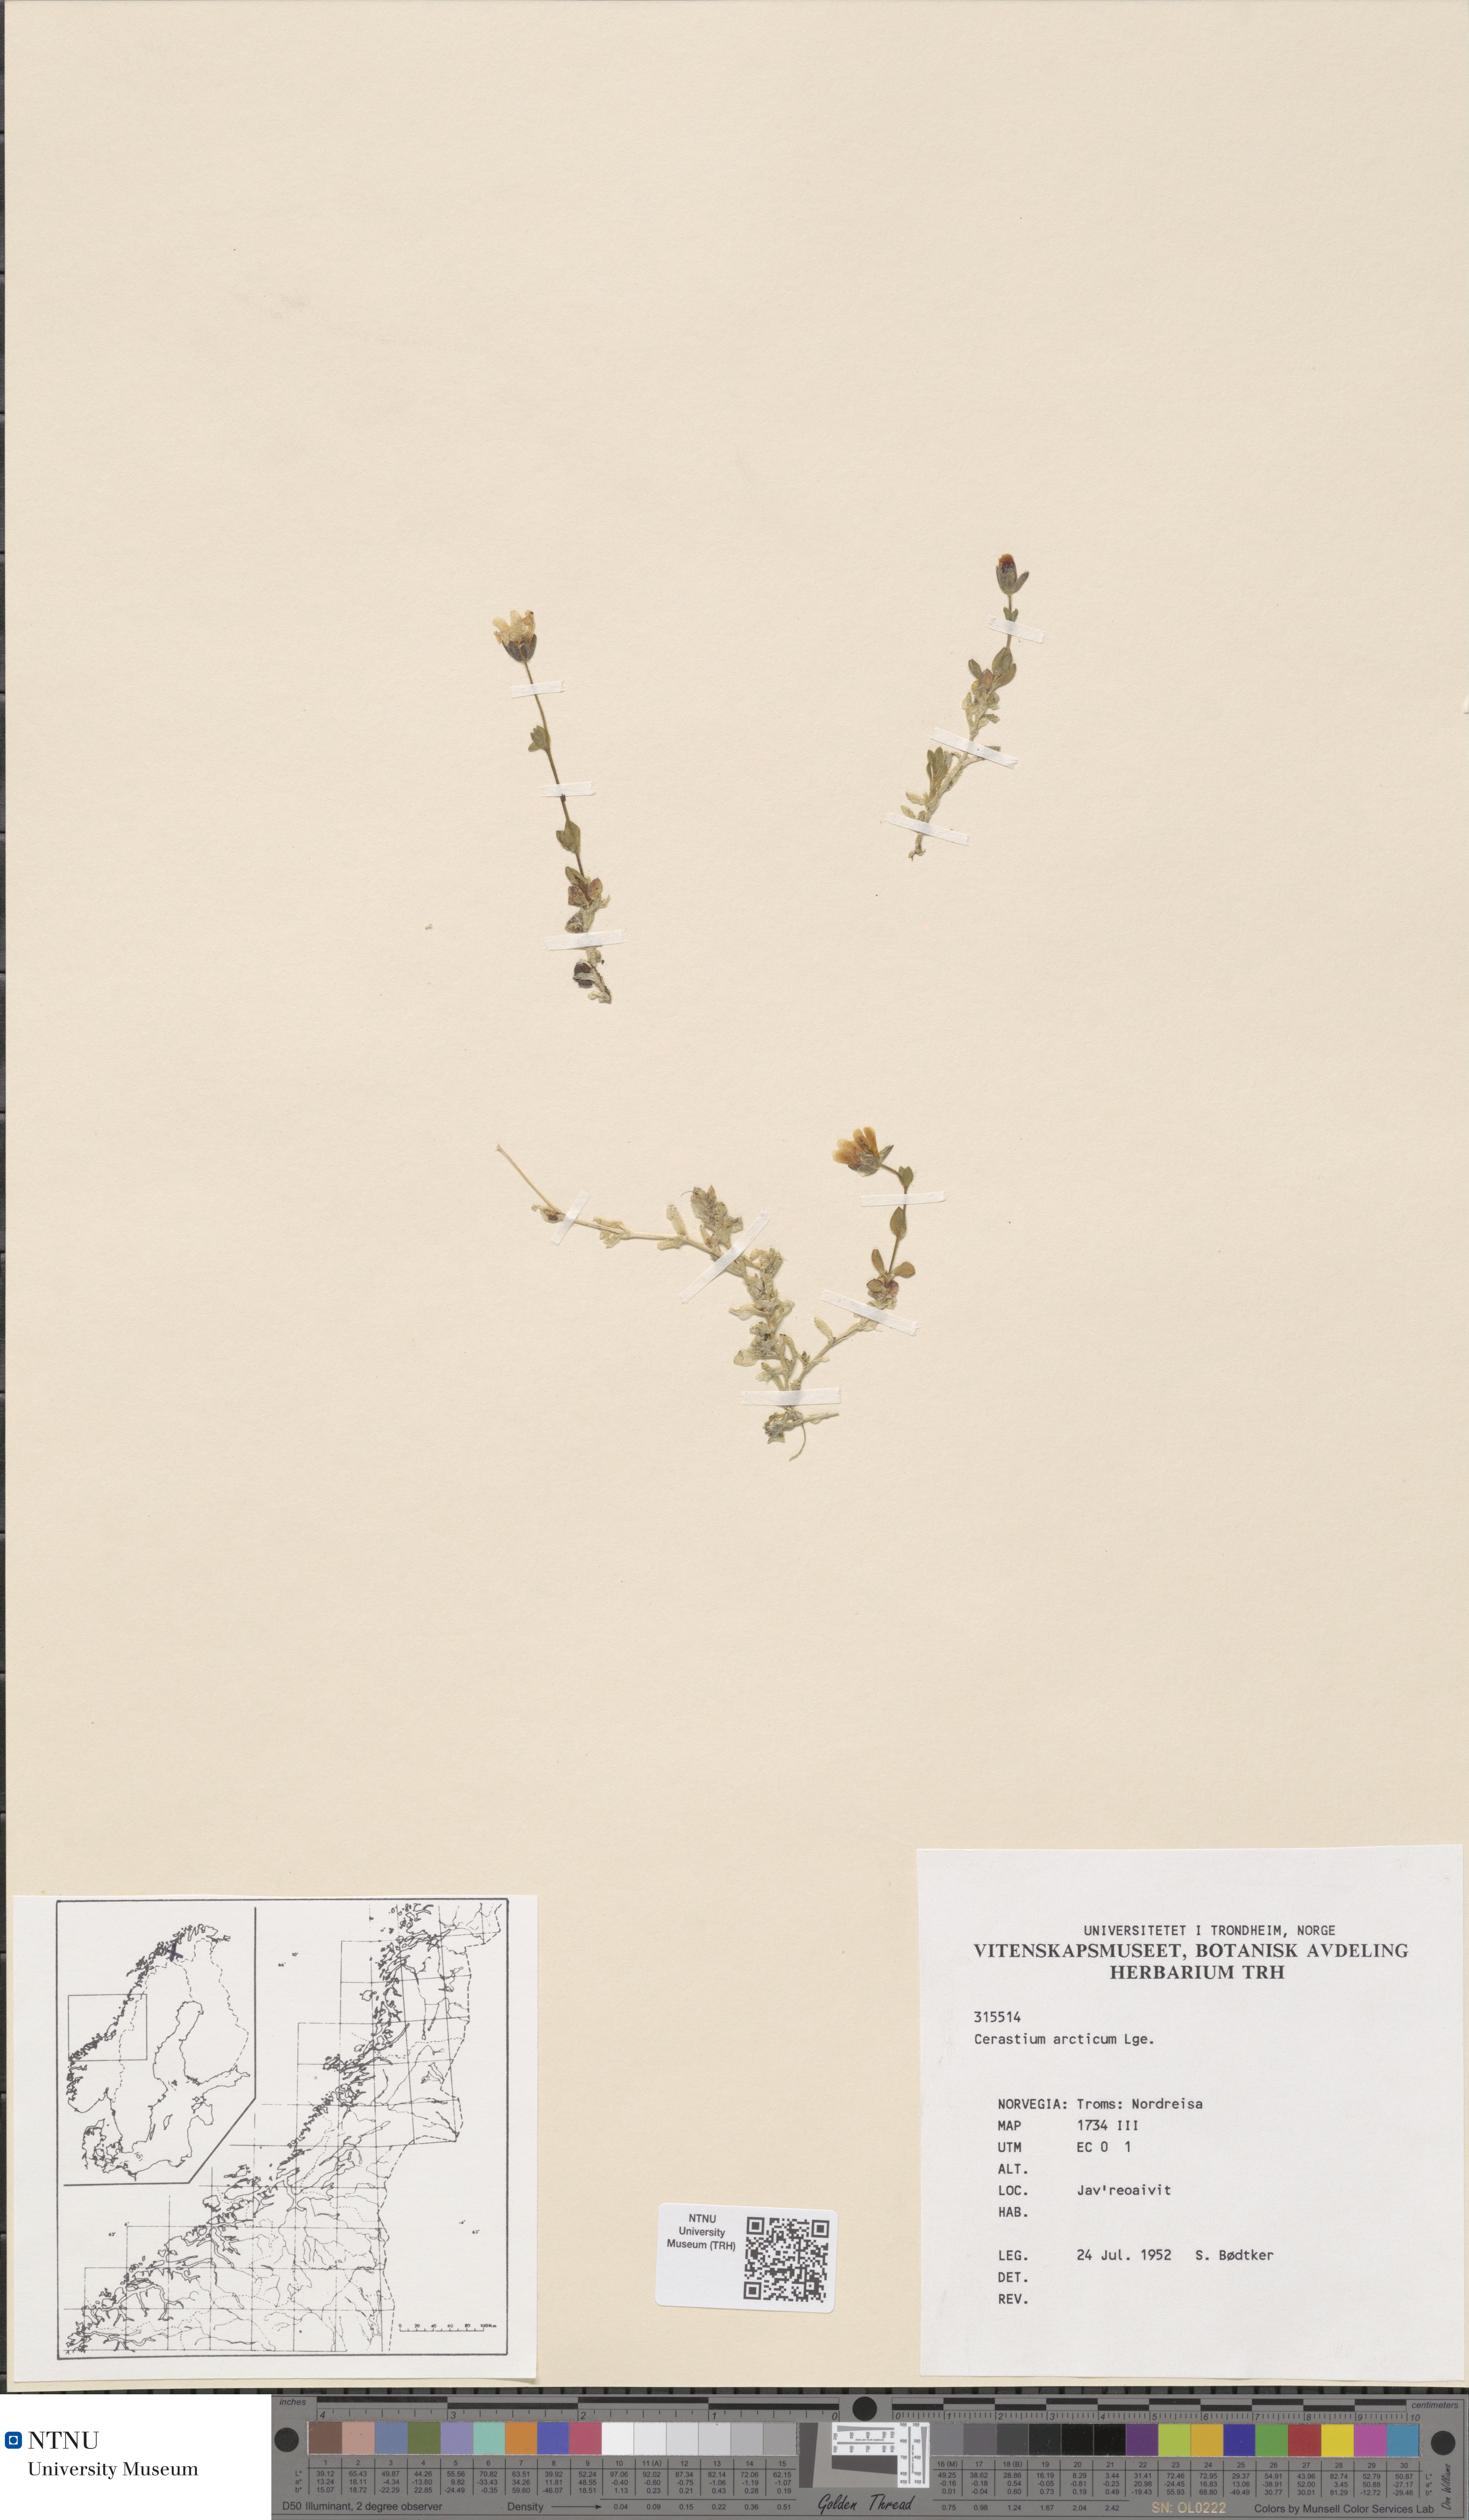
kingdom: Plantae
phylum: Tracheophyta
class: Magnoliopsida
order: Caryophyllales
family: Caryophyllaceae
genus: Cerastium
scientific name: Cerastium nigrescens
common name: Shetland mouse-ear
